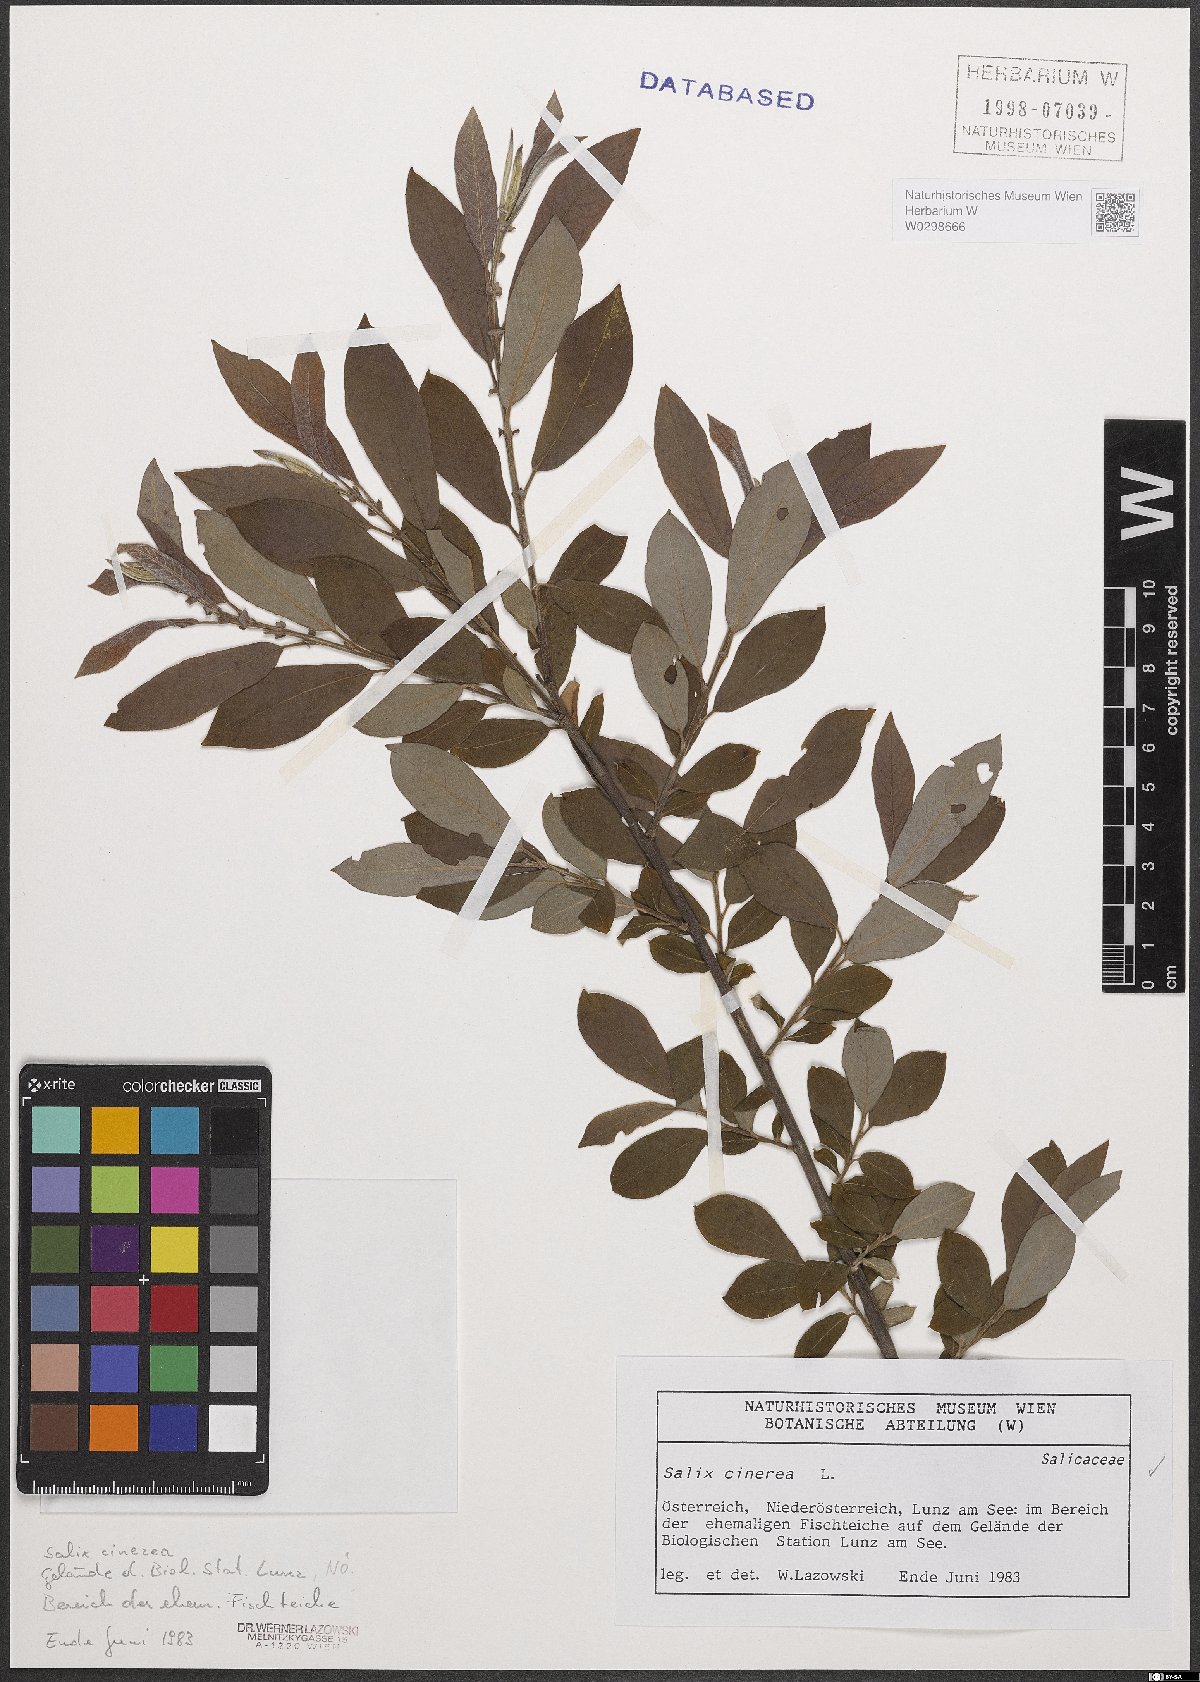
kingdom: Plantae
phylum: Tracheophyta
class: Magnoliopsida
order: Malpighiales
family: Salicaceae
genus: Salix
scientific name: Salix cinerea
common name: Common sallow
